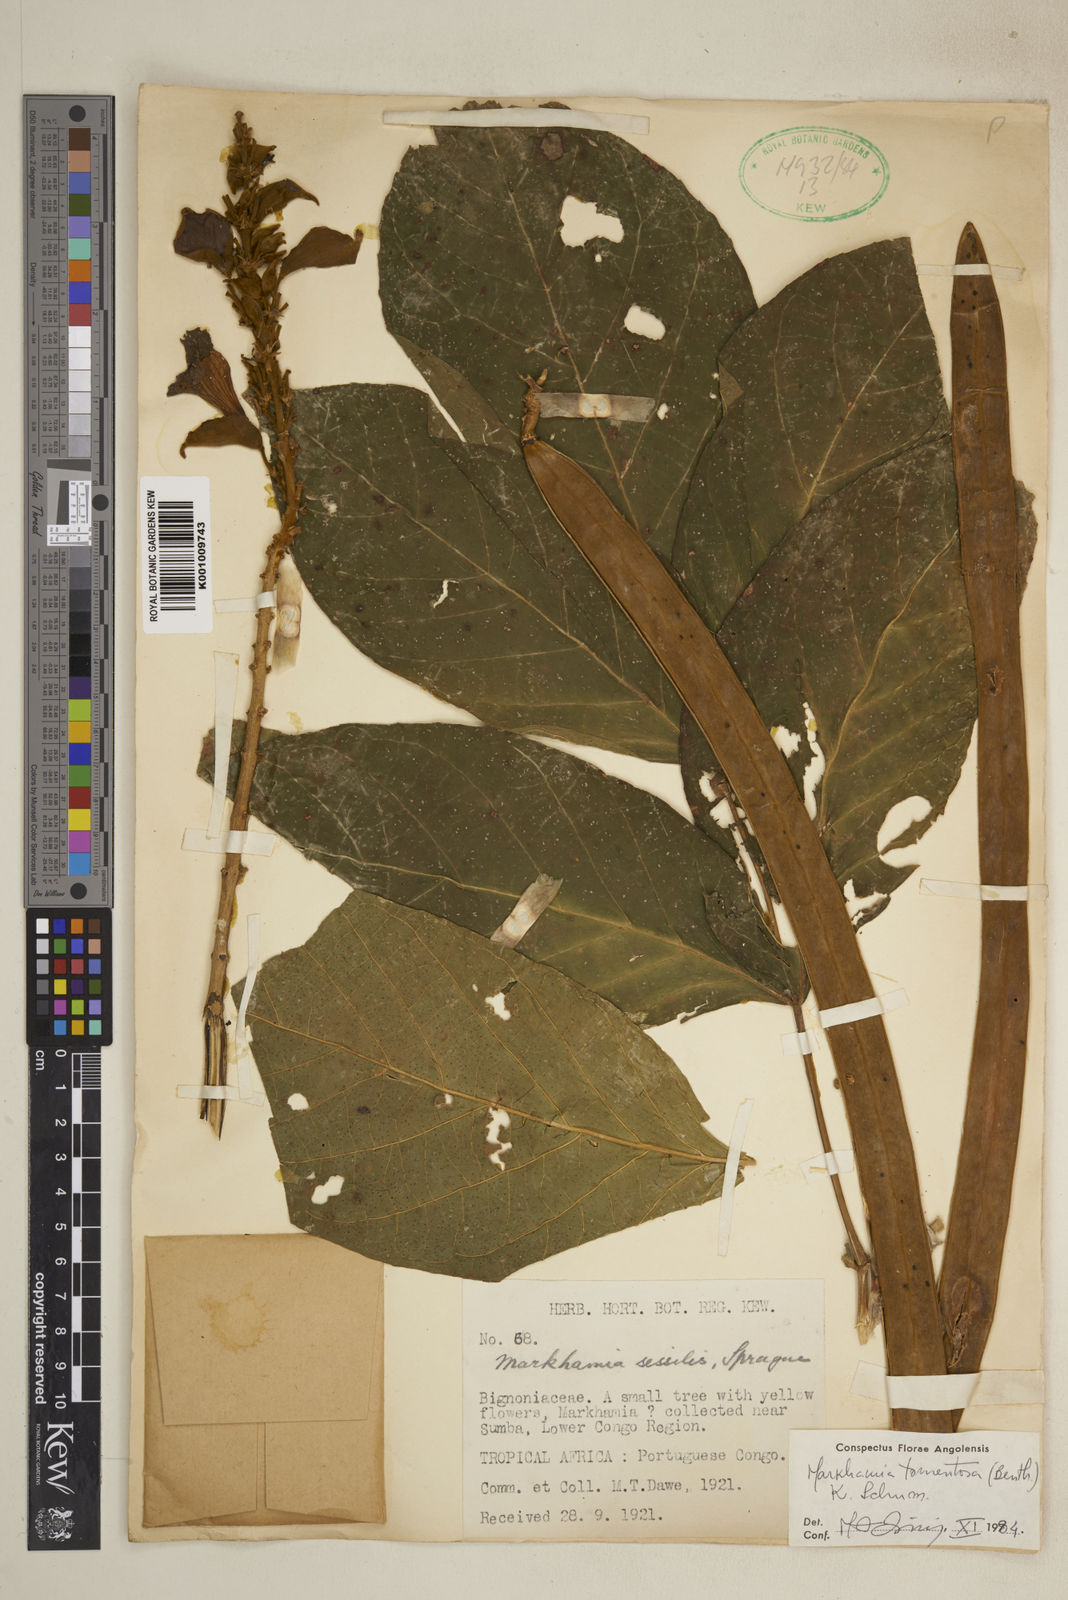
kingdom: Plantae
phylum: Tracheophyta
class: Magnoliopsida
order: Lamiales
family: Bignoniaceae
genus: Markhamia
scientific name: Markhamia tomentosa
